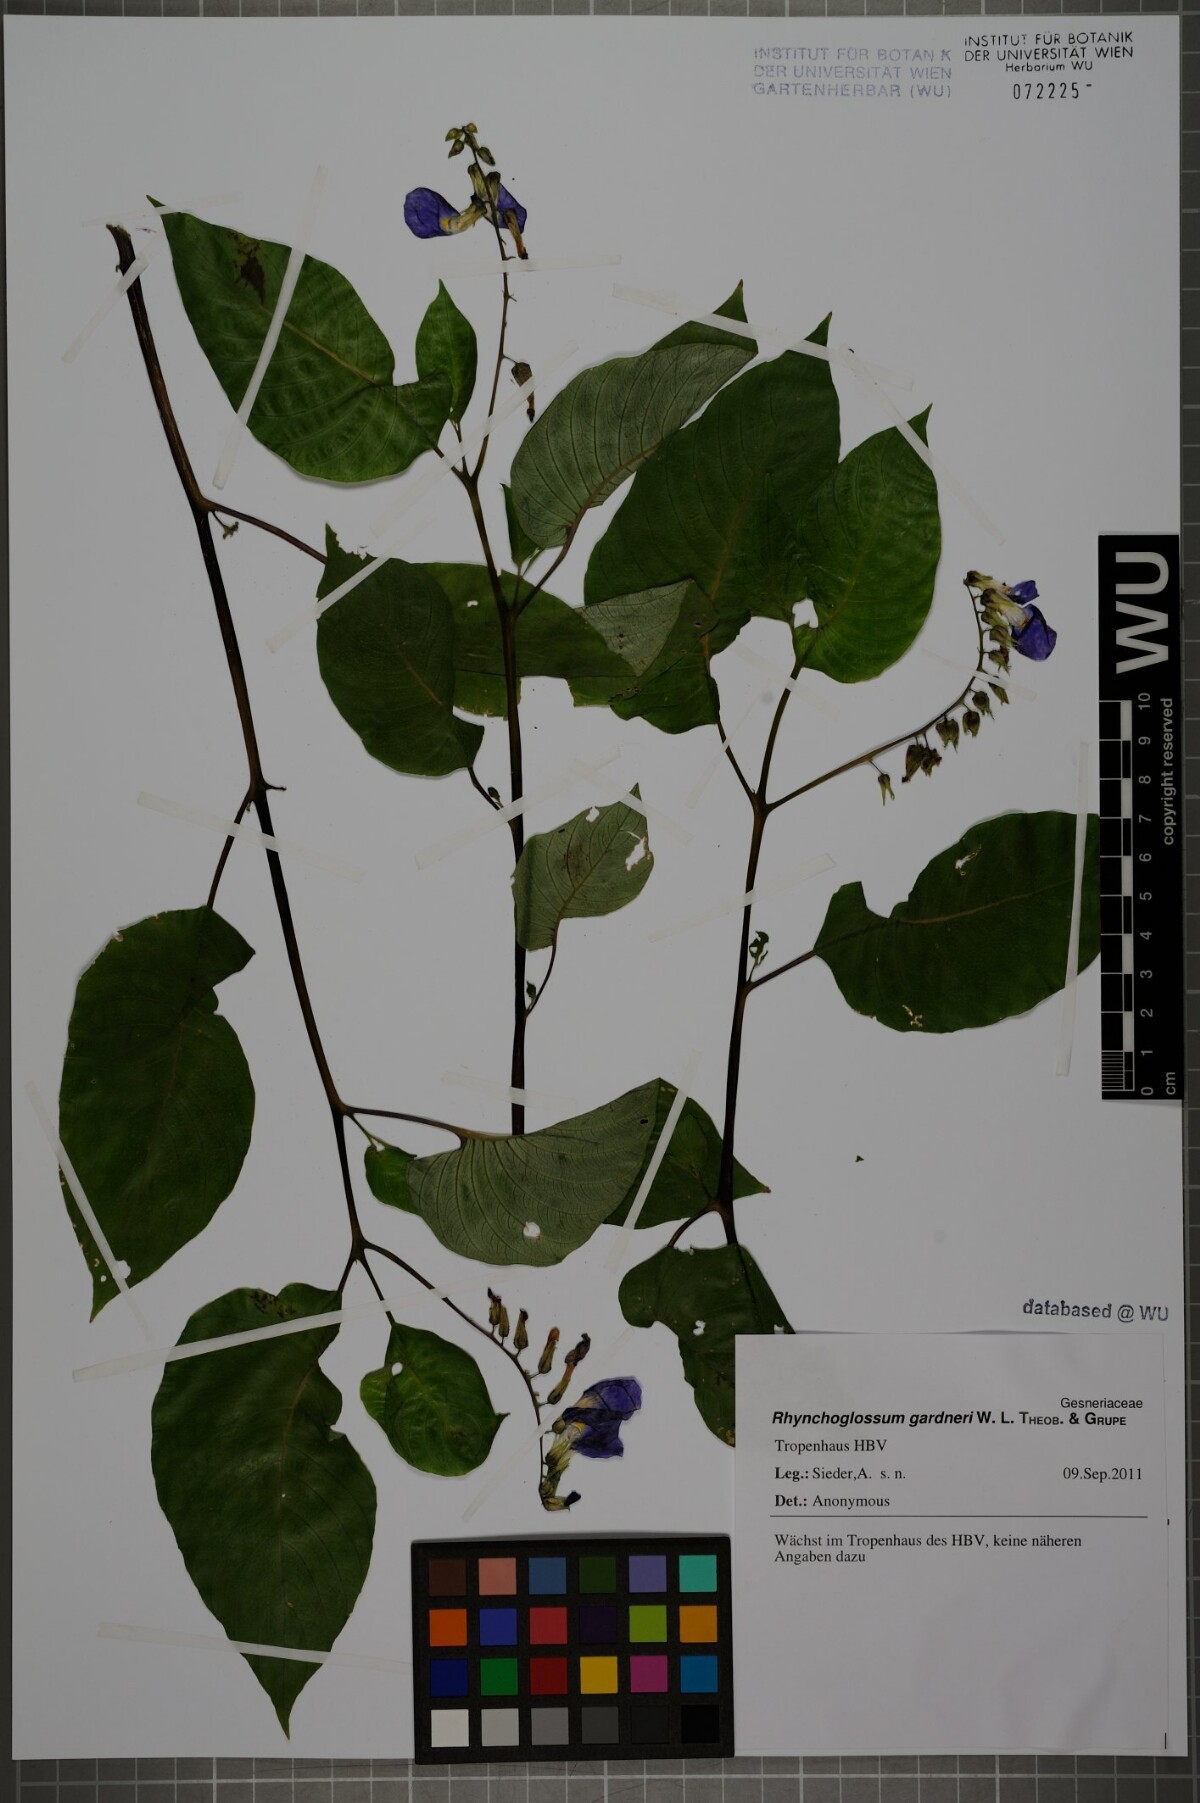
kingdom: Plantae
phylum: Tracheophyta
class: Magnoliopsida
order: Lamiales
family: Gesneriaceae
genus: Rhynchoglossum
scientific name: Rhynchoglossum gardneri
